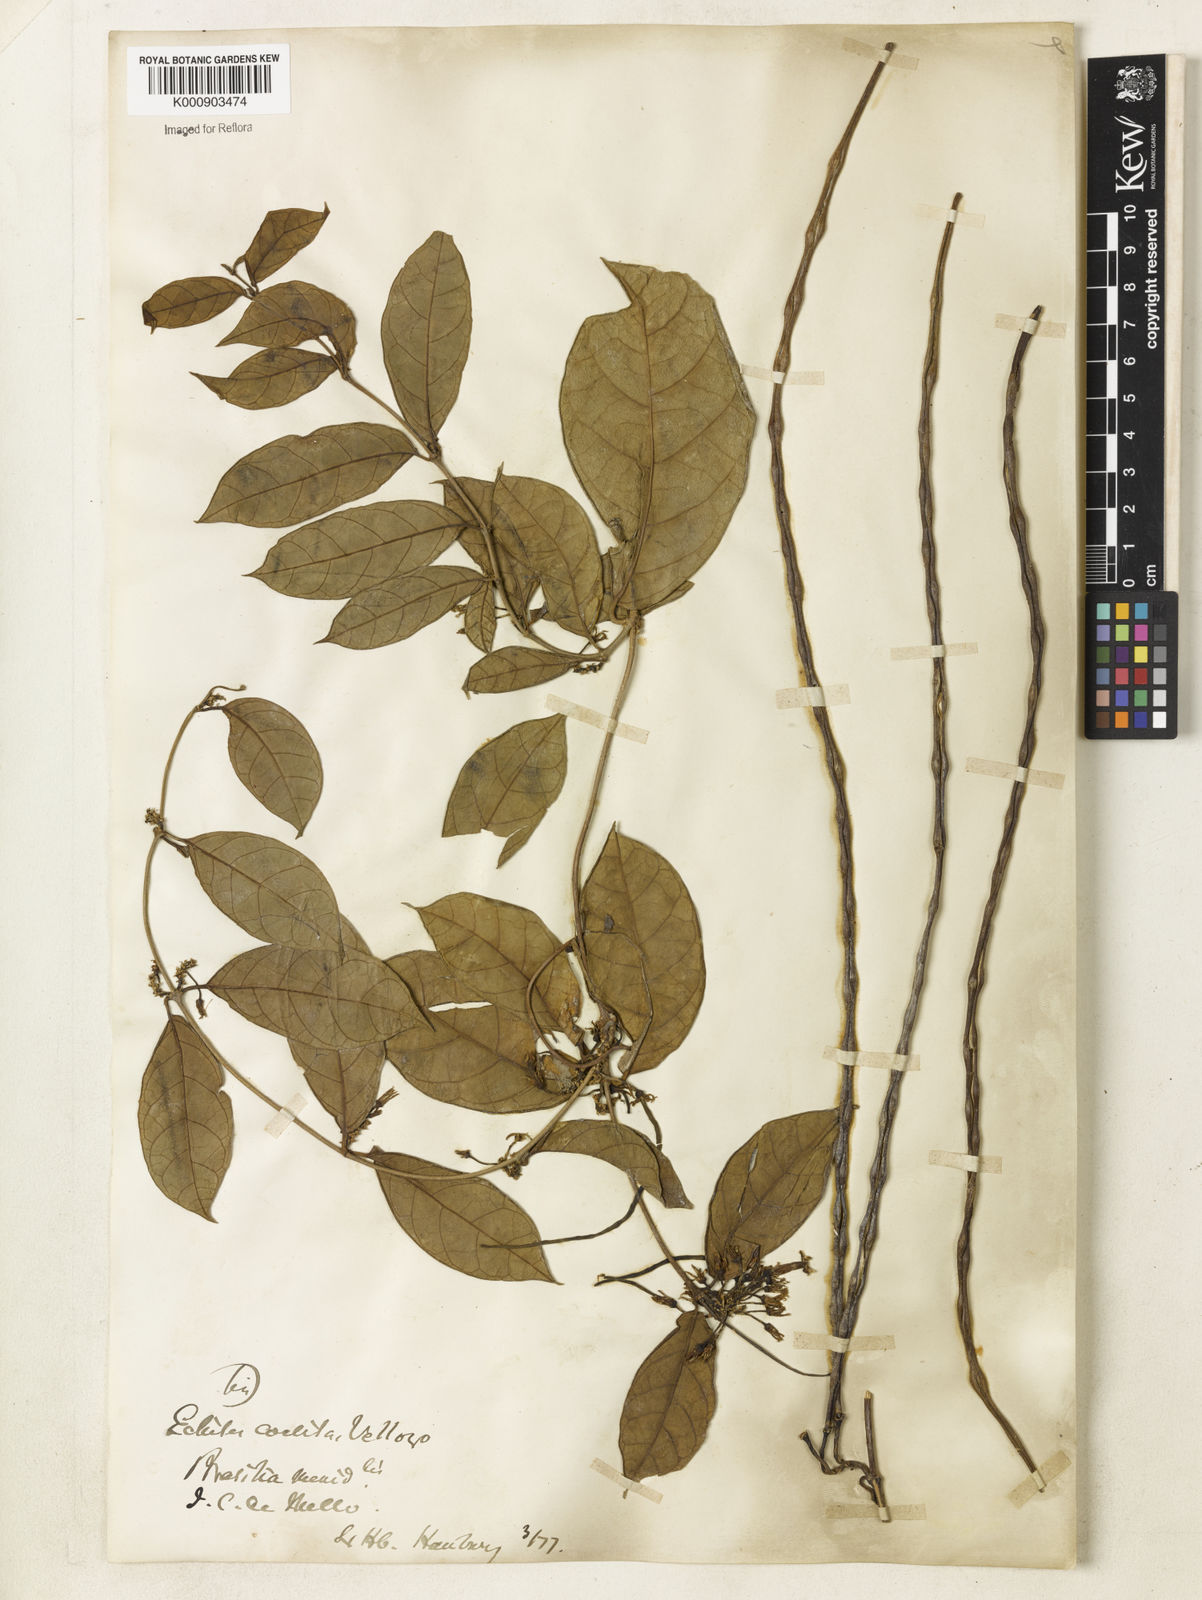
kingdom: Plantae
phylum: Tracheophyta
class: Magnoliopsida
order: Gentianales
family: Apocynaceae
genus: Prestonia
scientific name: Prestonia coalita
